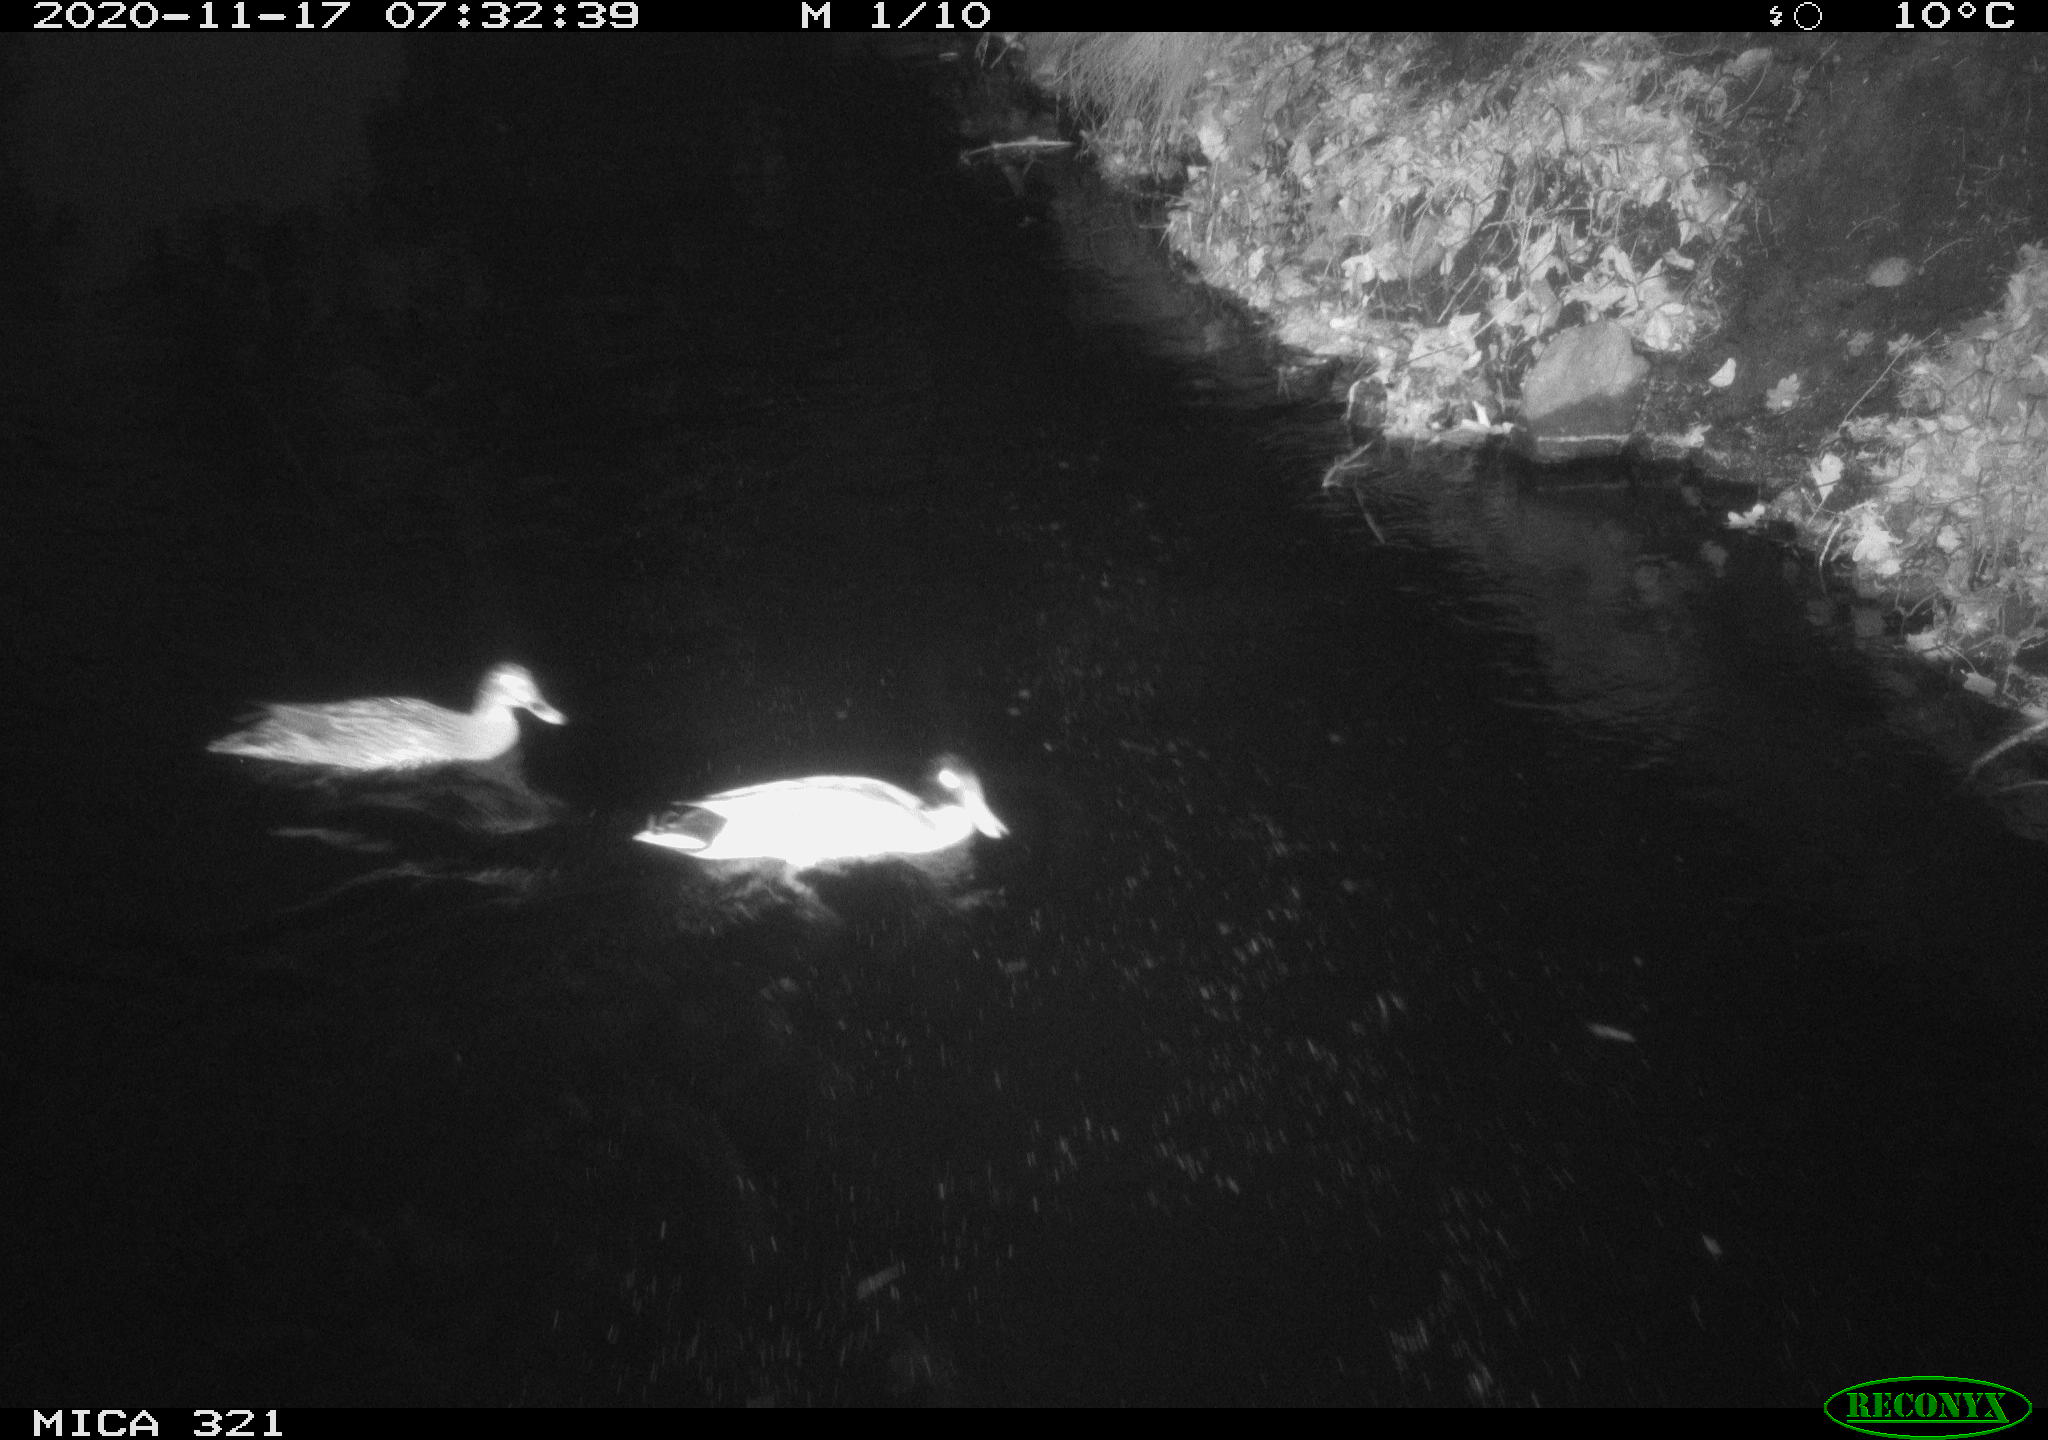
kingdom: Animalia
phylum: Chordata
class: Aves
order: Anseriformes
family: Anatidae
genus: Anas
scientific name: Anas platyrhynchos
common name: Mallard
